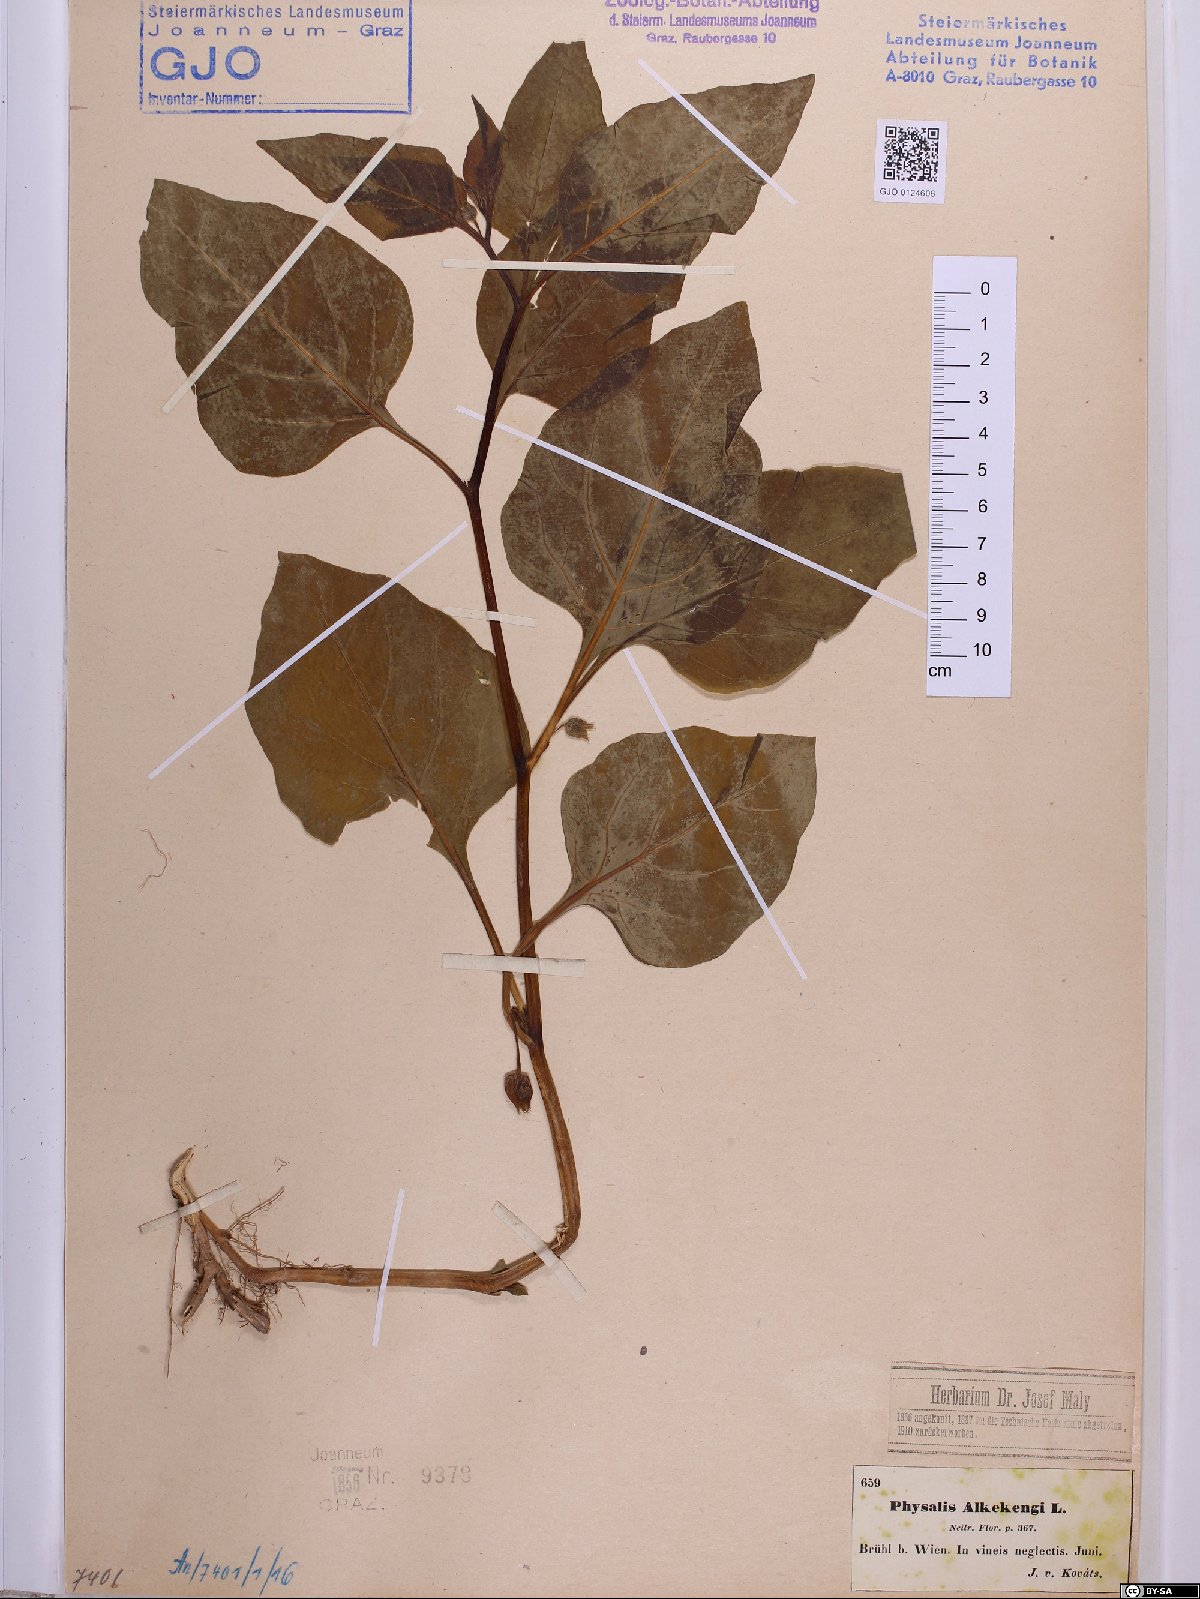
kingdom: Plantae
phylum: Tracheophyta
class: Magnoliopsida
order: Solanales
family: Solanaceae
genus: Alkekengi
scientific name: Alkekengi officinarum
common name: Japanese-lantern
